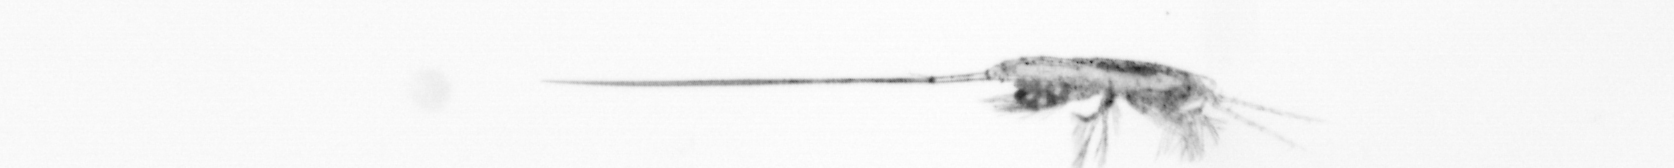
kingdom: Animalia
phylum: Arthropoda
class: Copepoda
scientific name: Copepoda
